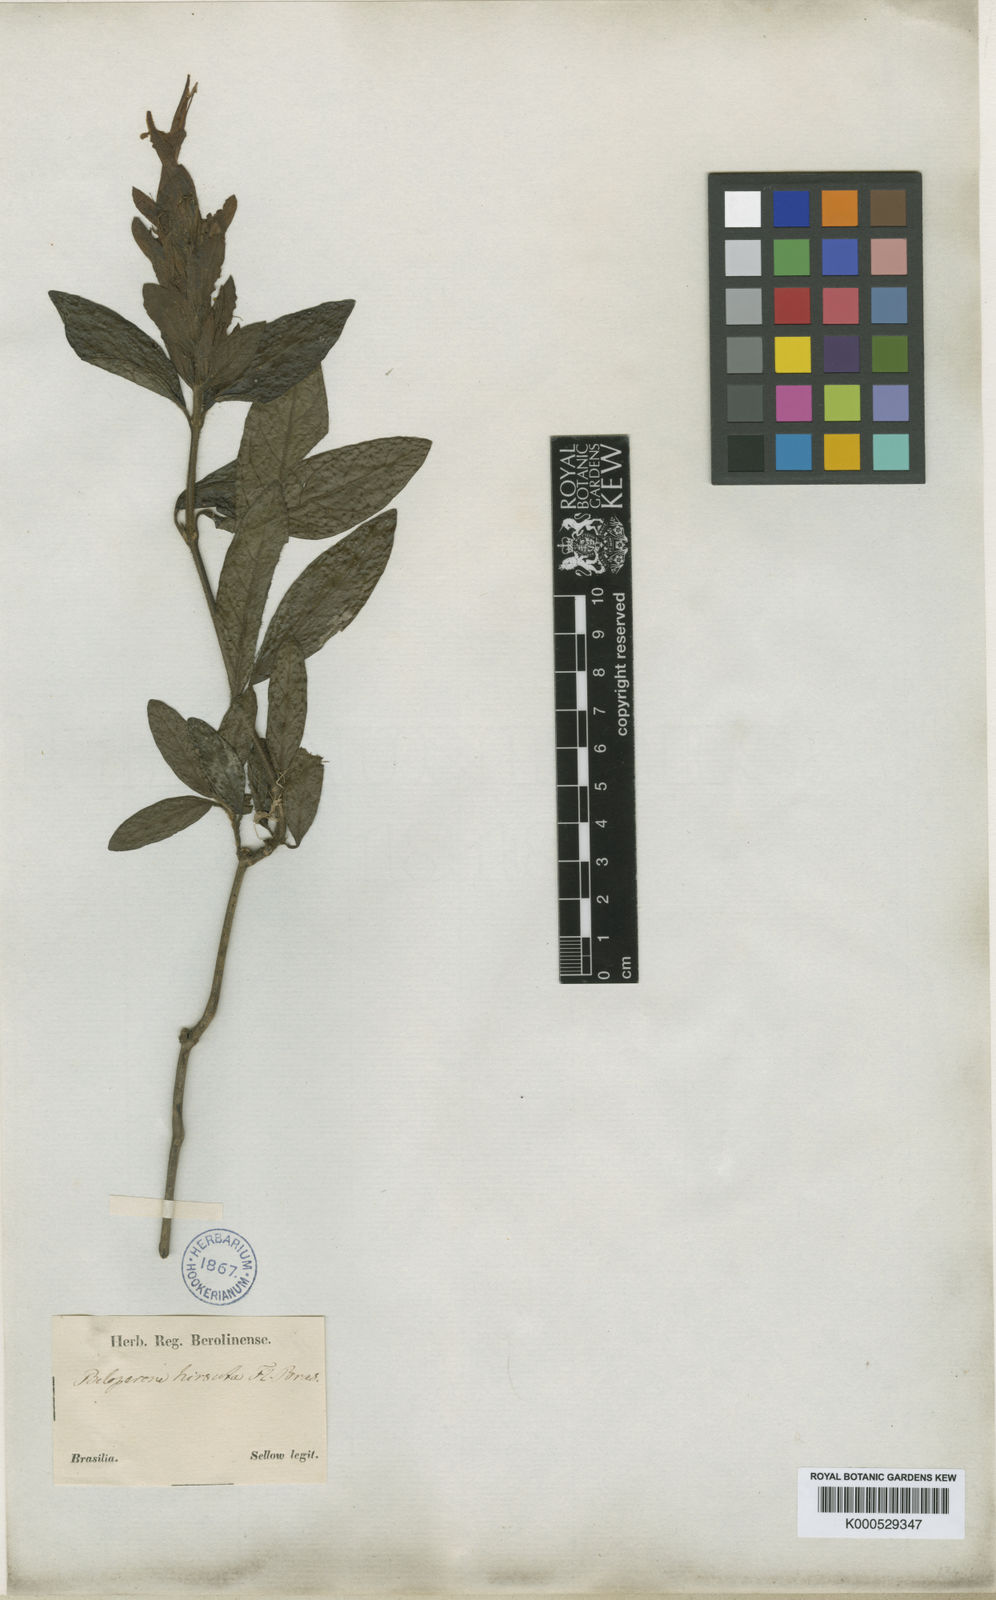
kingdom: Plantae
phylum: Tracheophyta
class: Magnoliopsida
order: Lamiales
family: Acanthaceae
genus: Nelsonia
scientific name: Nelsonia canescens
